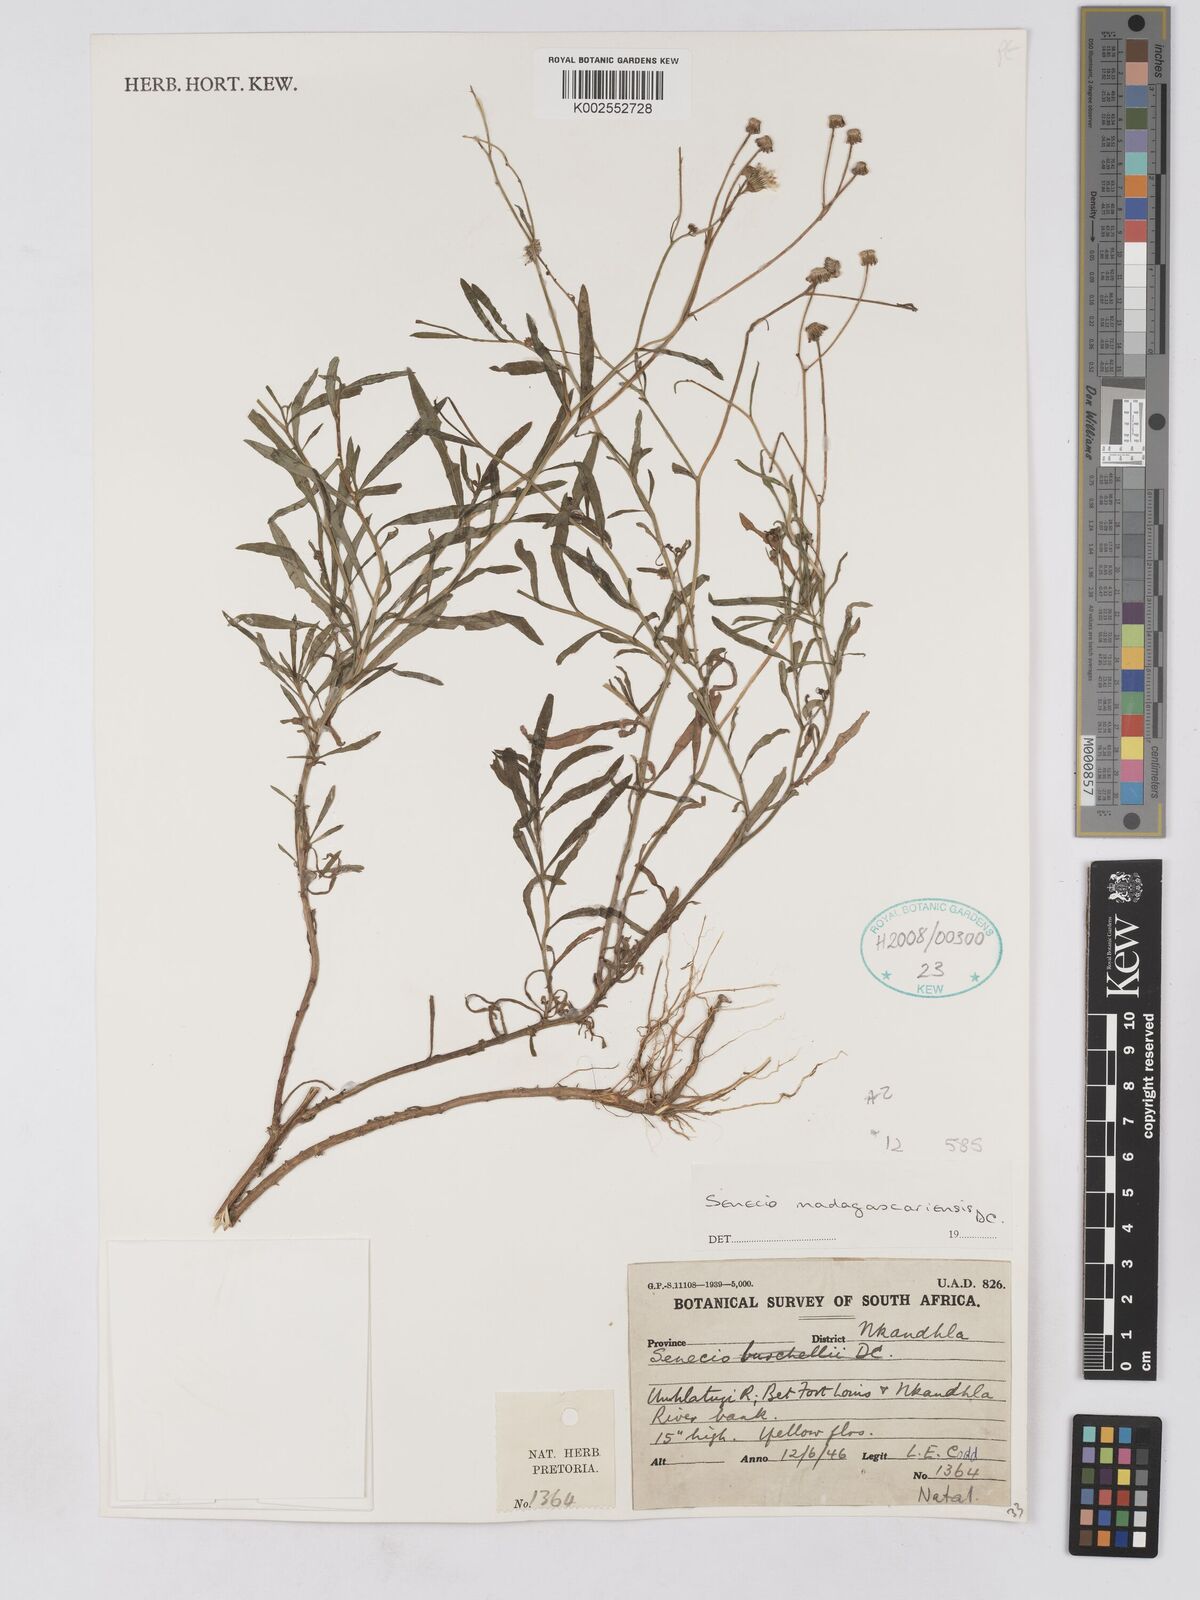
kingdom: Plantae
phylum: Tracheophyta
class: Magnoliopsida
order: Asterales
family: Asteraceae
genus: Senecio
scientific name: Senecio madagascariensis
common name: Madagascar ragwort
